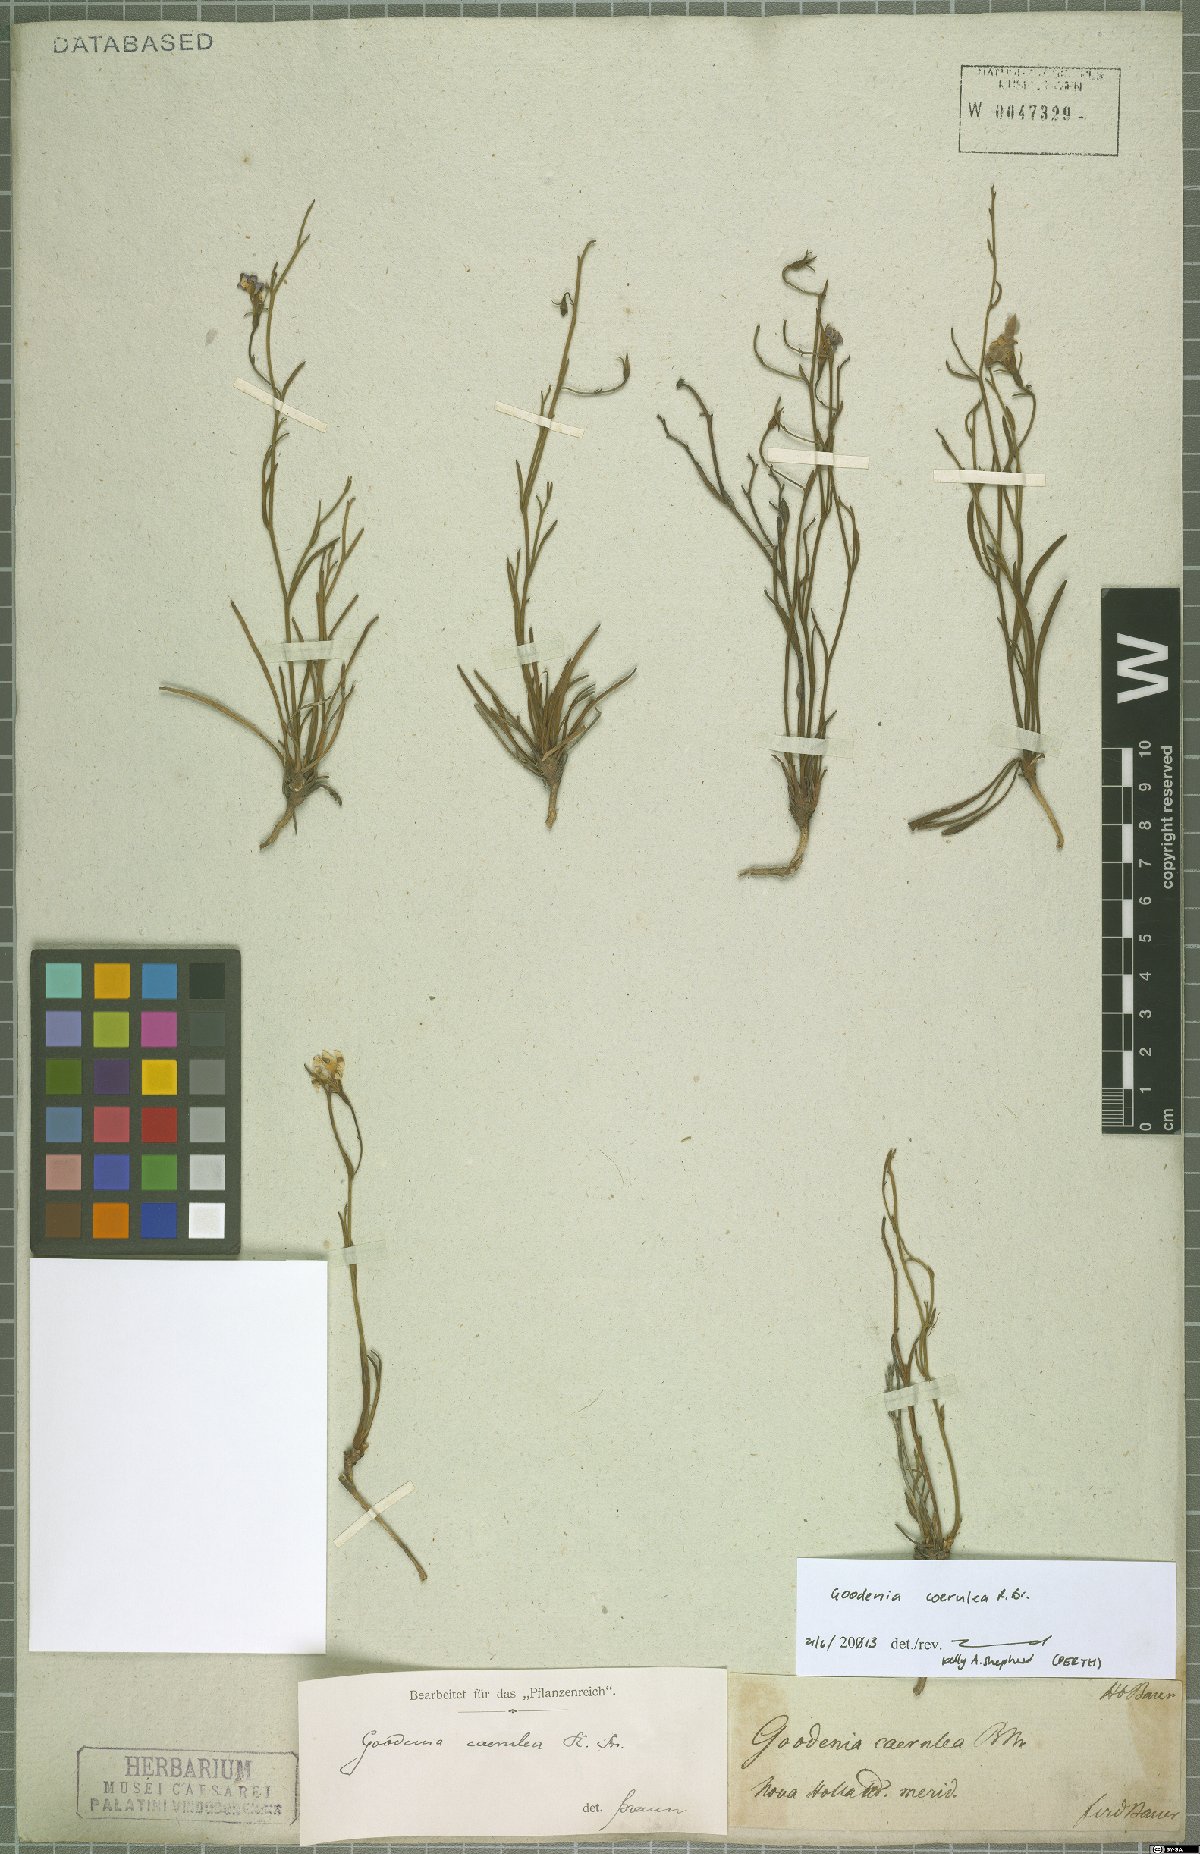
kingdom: Plantae
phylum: Tracheophyta
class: Magnoliopsida
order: Asterales
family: Goodeniaceae
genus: Goodenia
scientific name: Goodenia coerulea
